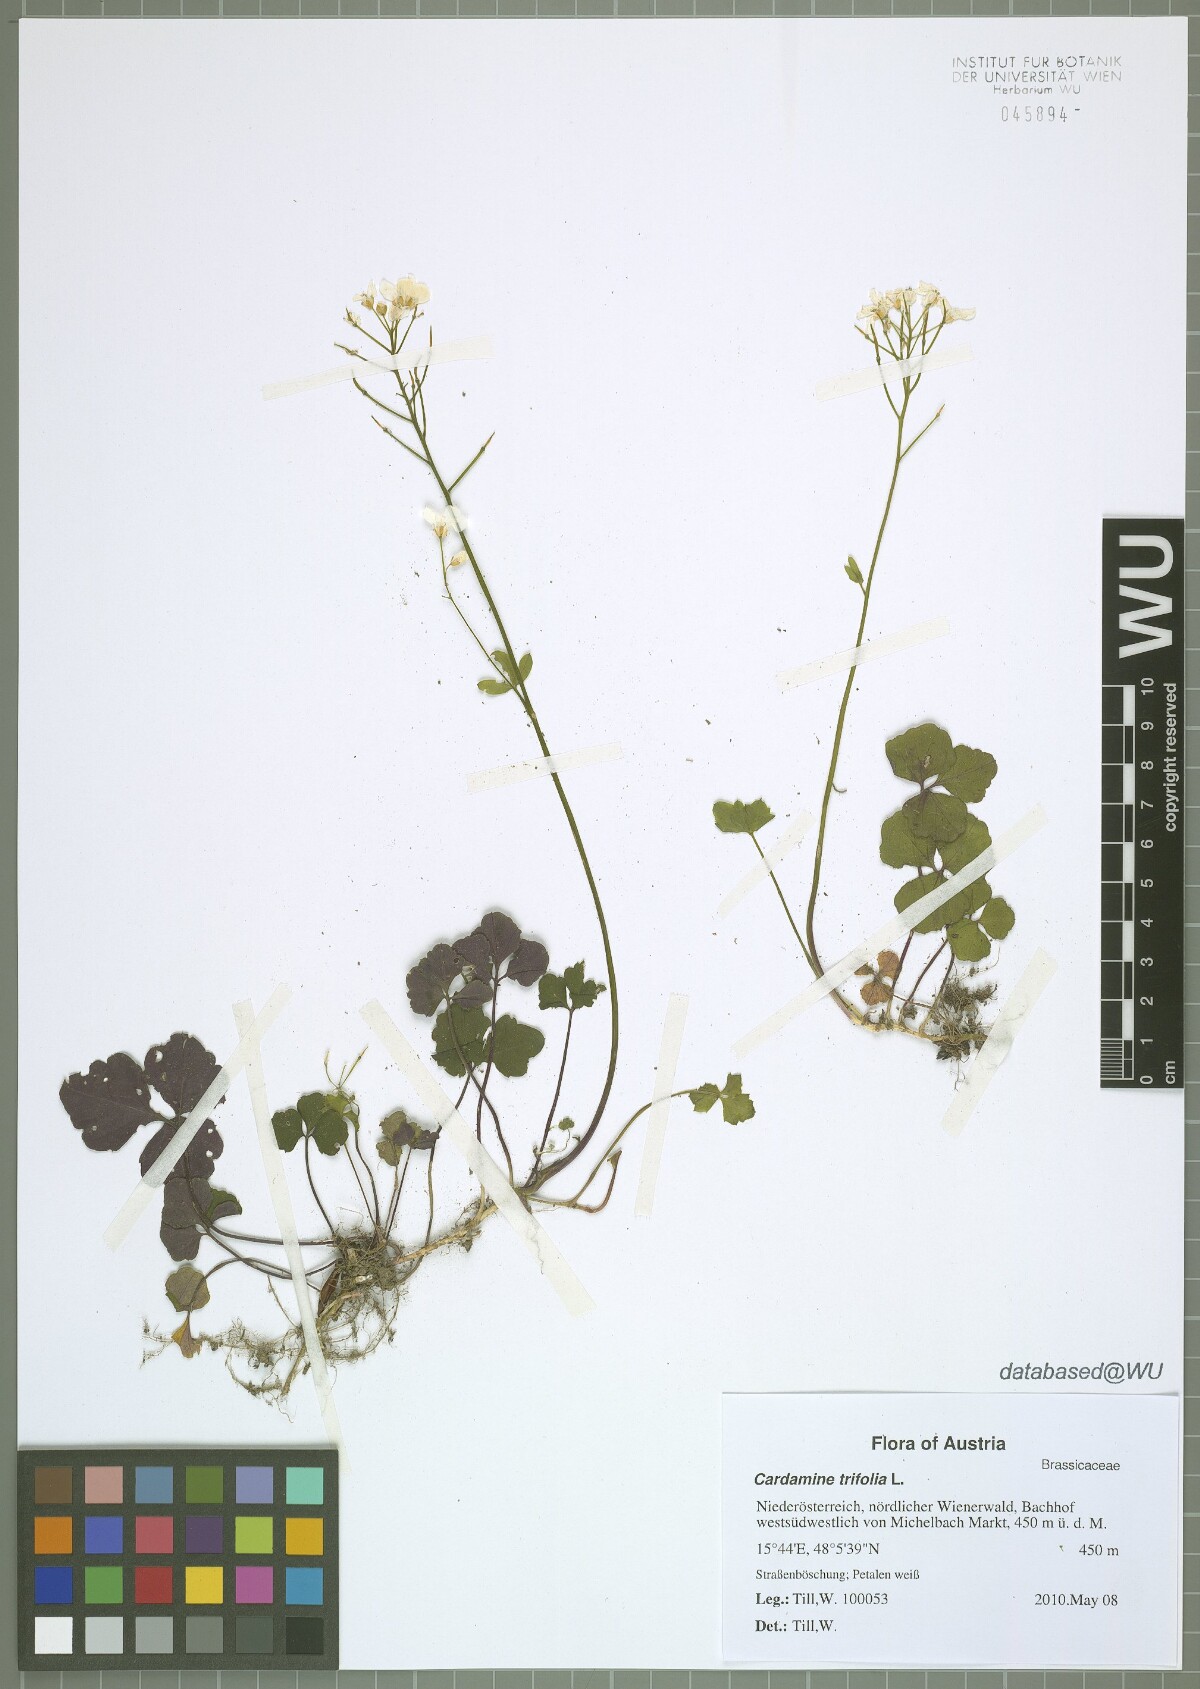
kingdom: Plantae
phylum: Tracheophyta
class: Magnoliopsida
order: Brassicales
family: Brassicaceae
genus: Cardamine
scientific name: Cardamine trifolia
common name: Trefoil cress
